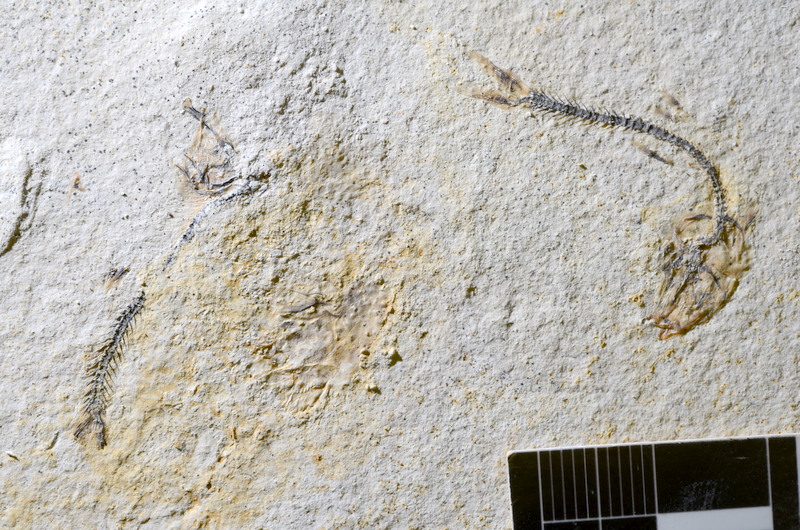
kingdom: Animalia
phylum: Chordata
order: Salmoniformes
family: Orthogonikleithridae
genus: Orthogonikleithrus
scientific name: Orthogonikleithrus hoelli
